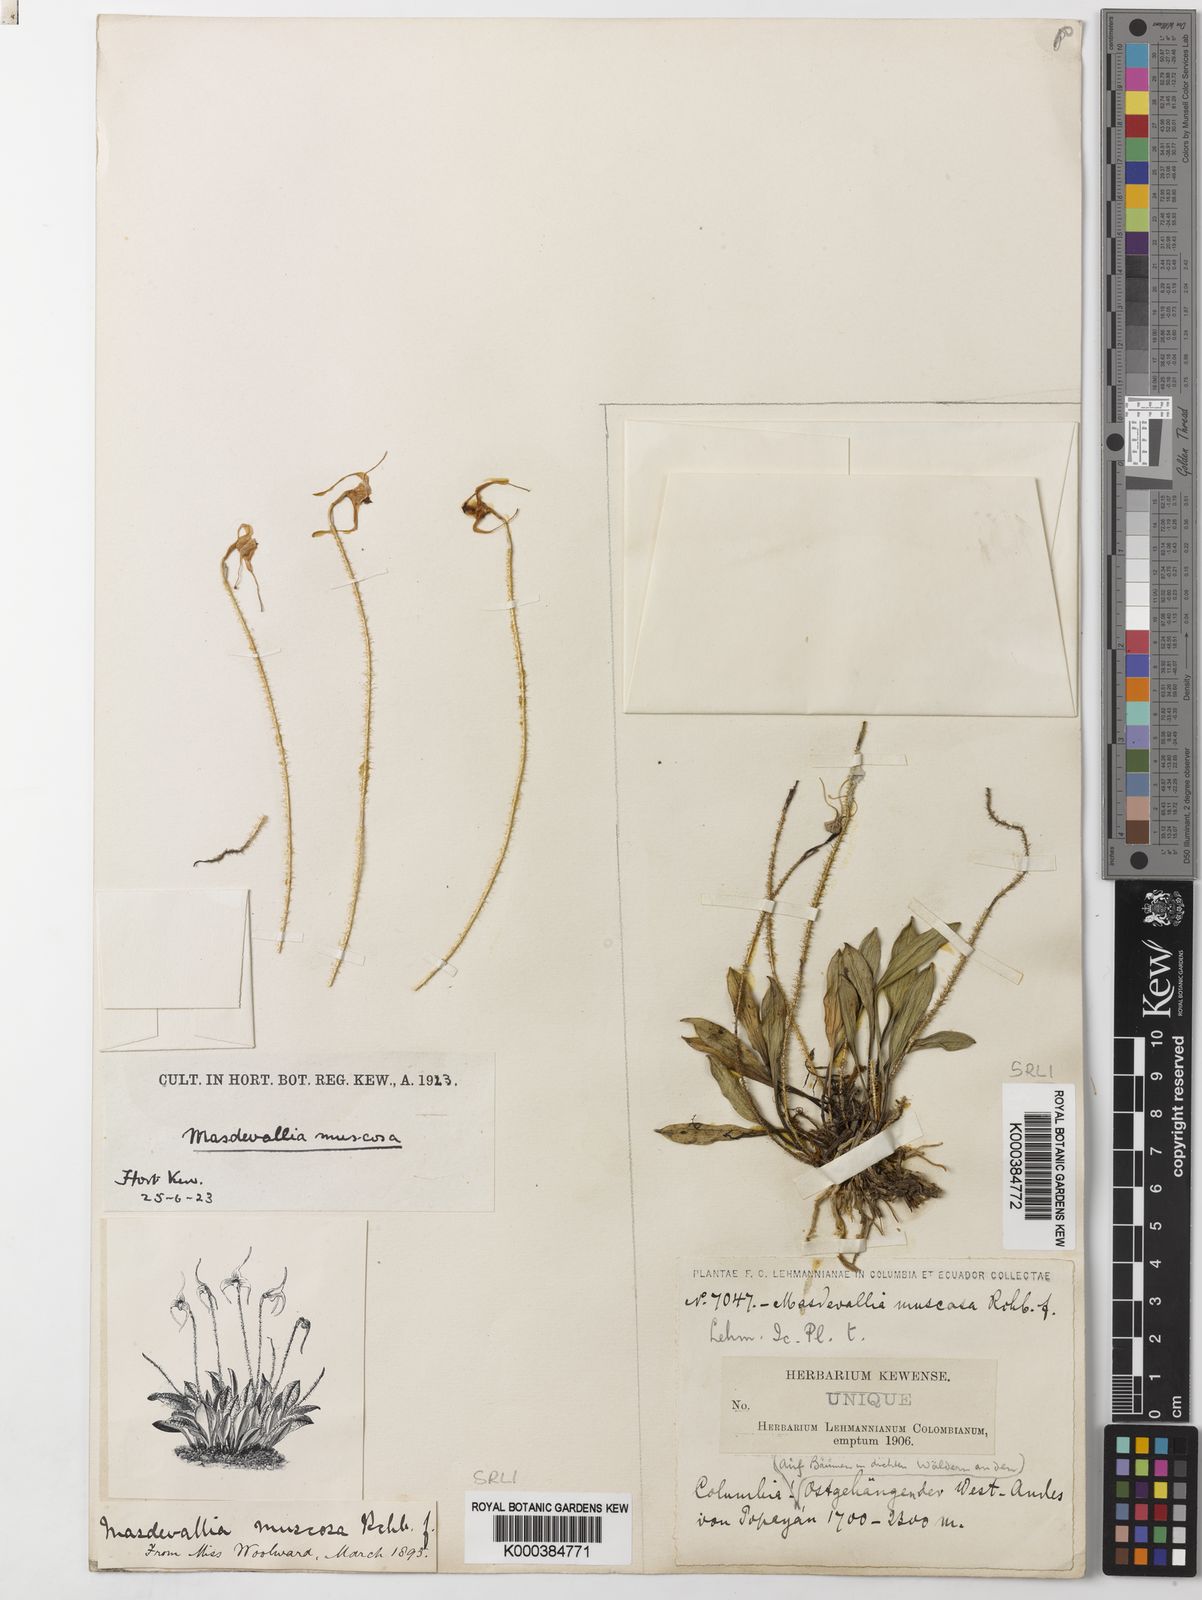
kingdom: Plantae
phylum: Tracheophyta
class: Liliopsida
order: Asparagales
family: Orchidaceae
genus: Porroglossum
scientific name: Porroglossum muscosum
